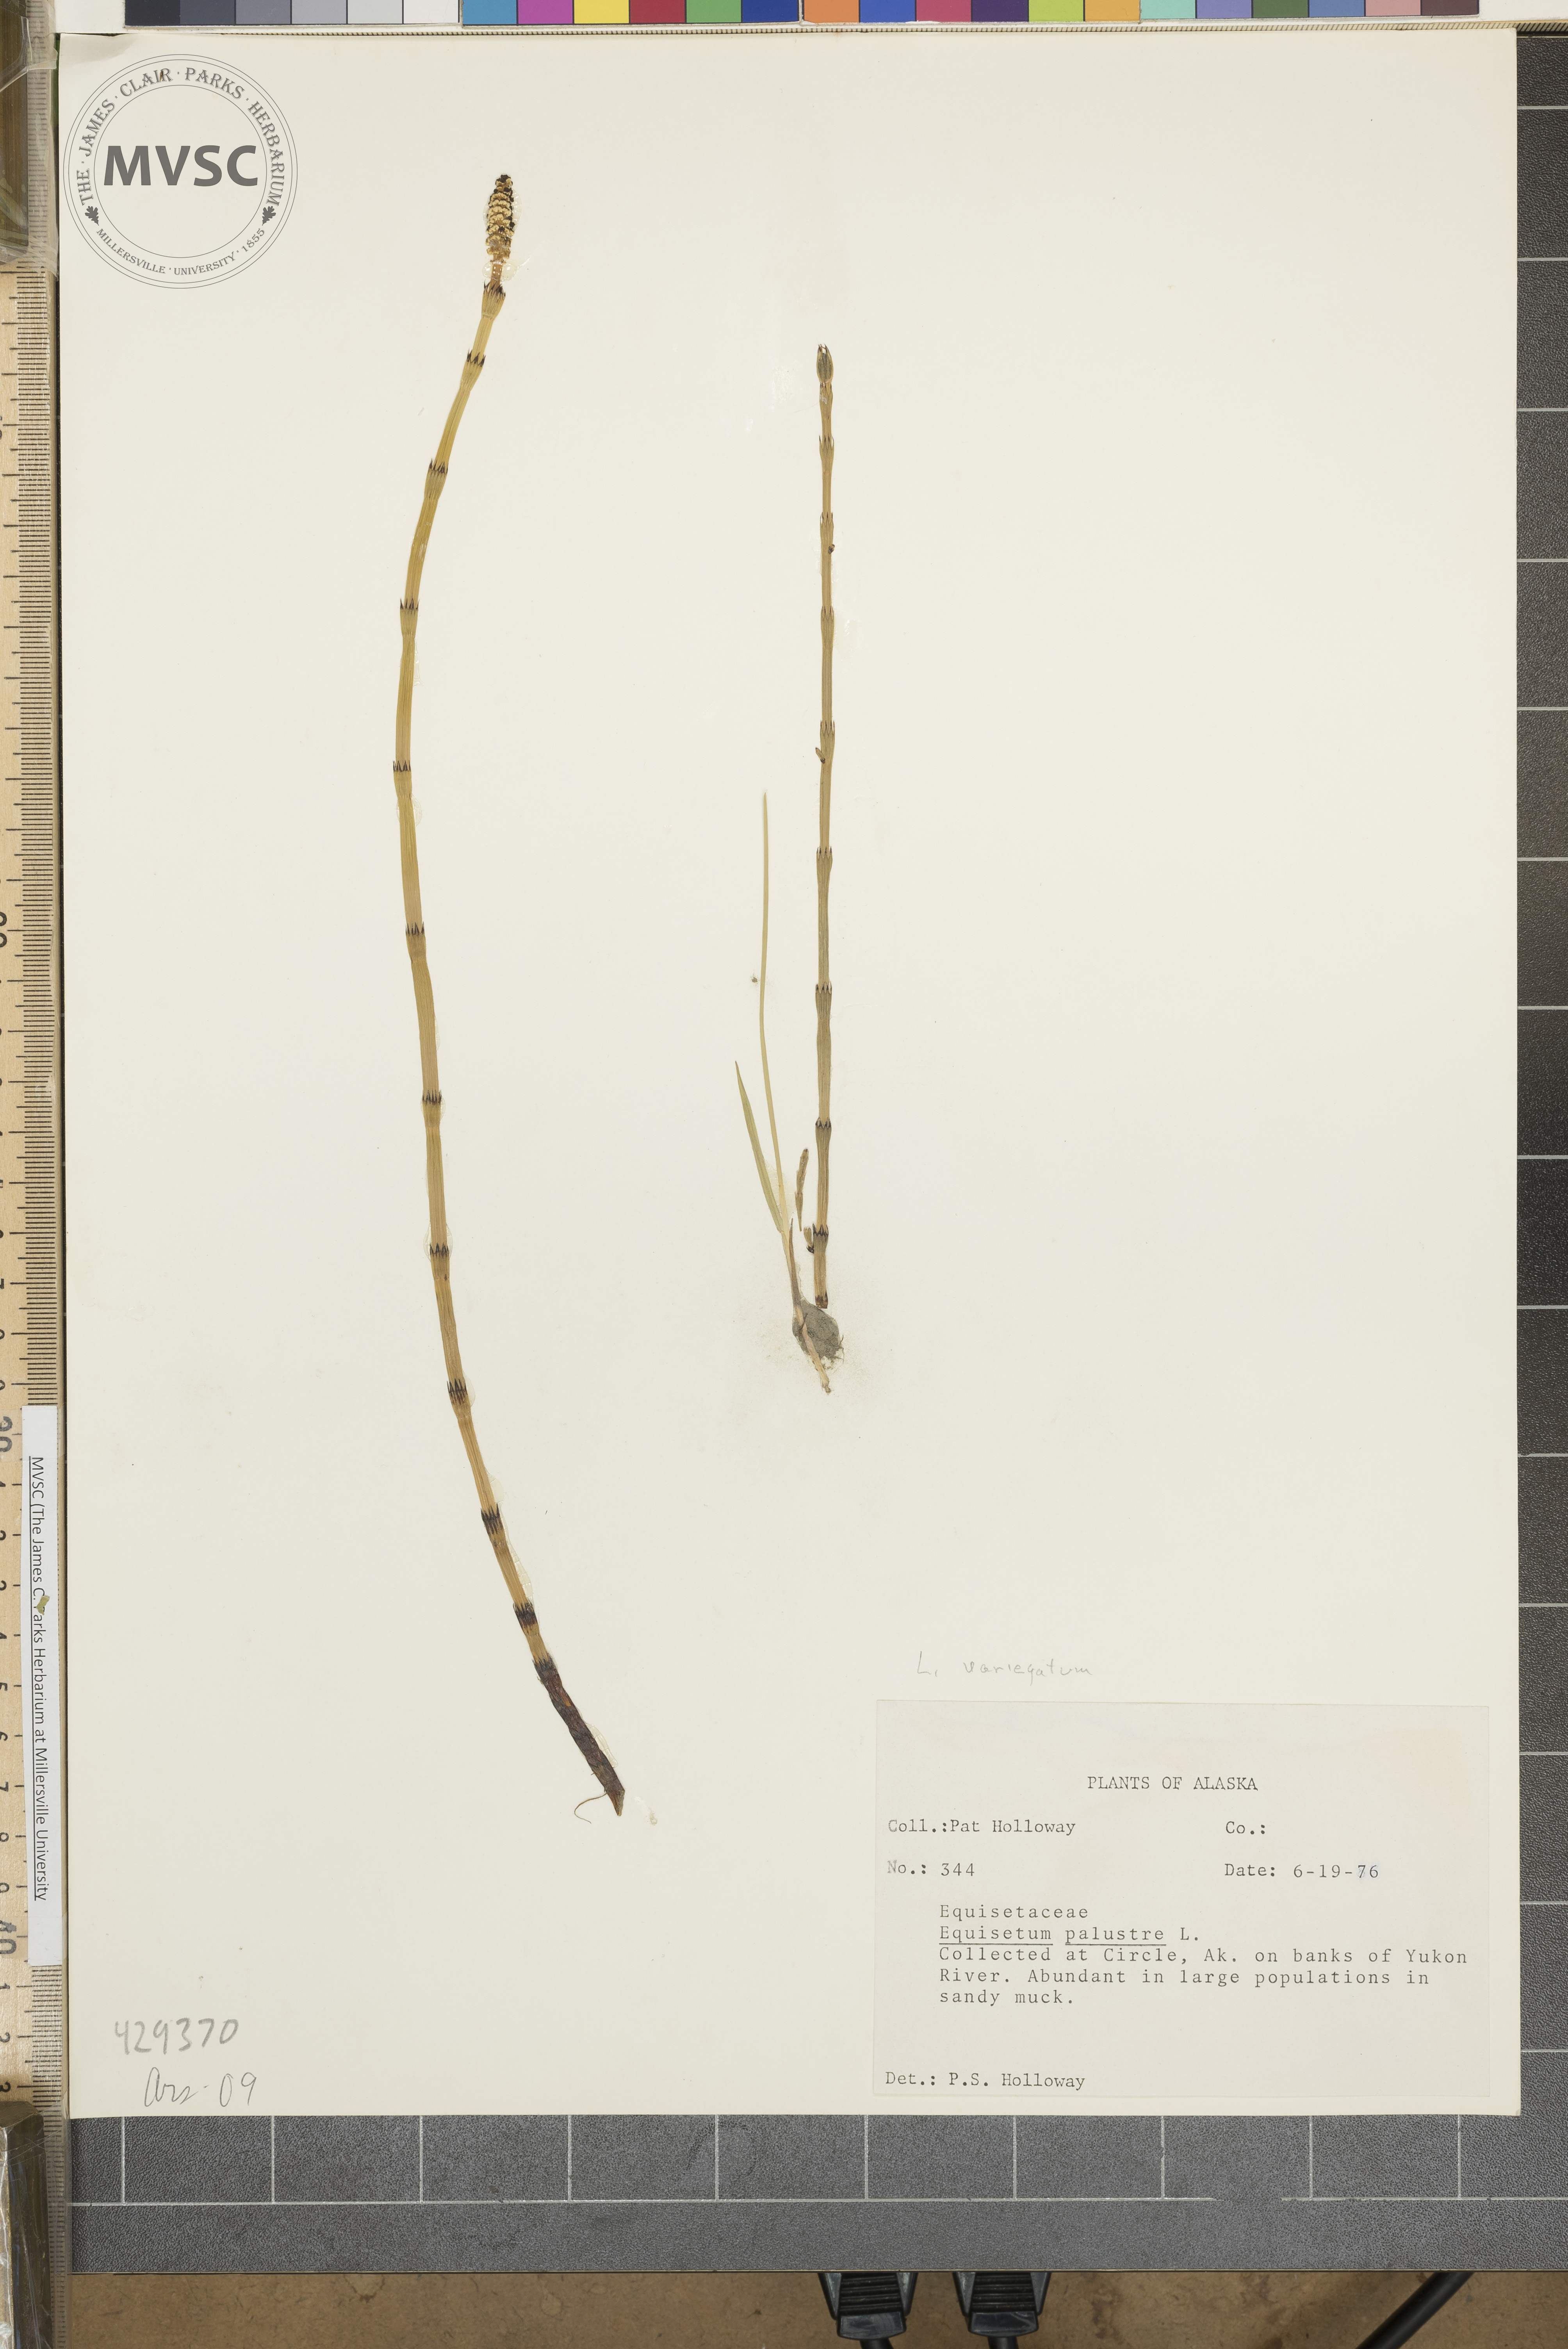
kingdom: Plantae
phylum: Tracheophyta
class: Polypodiopsida
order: Equisetales
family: Equisetaceae
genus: Equisetum
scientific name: Equisetum variegatum
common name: Variegated horsetail
